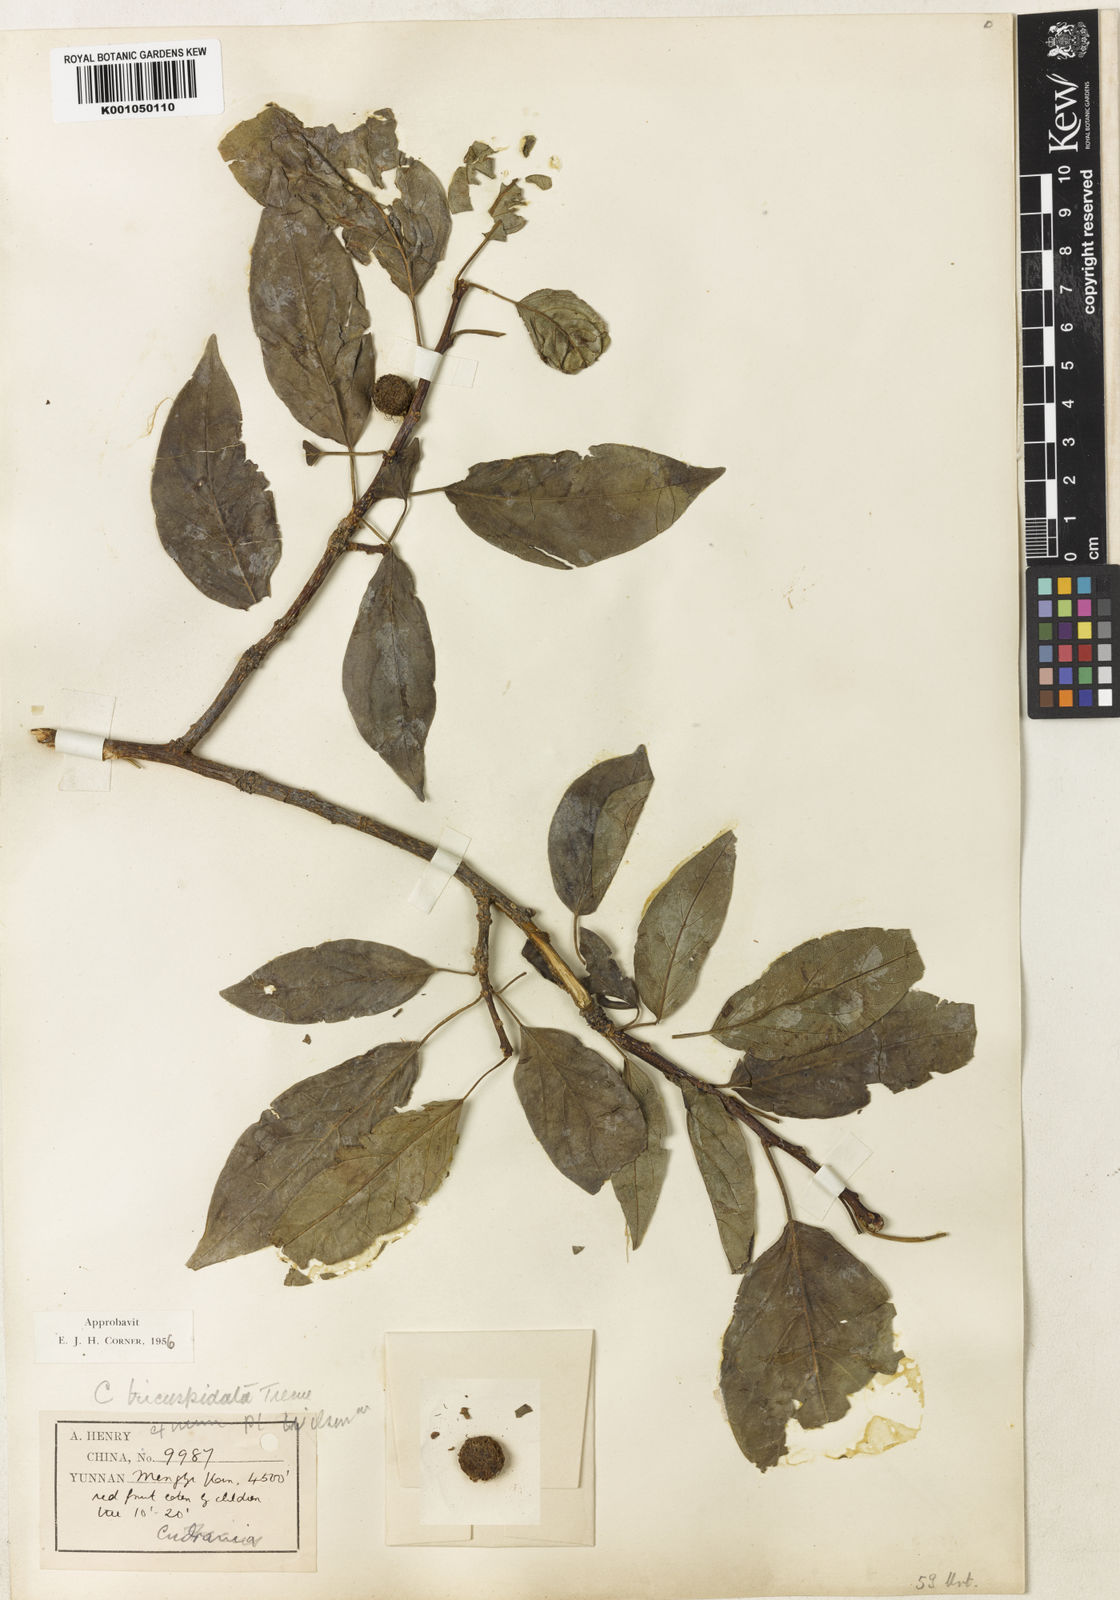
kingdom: Plantae
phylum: Tracheophyta
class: Magnoliopsida
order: Rosales
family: Moraceae
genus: Maclura
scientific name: Maclura
